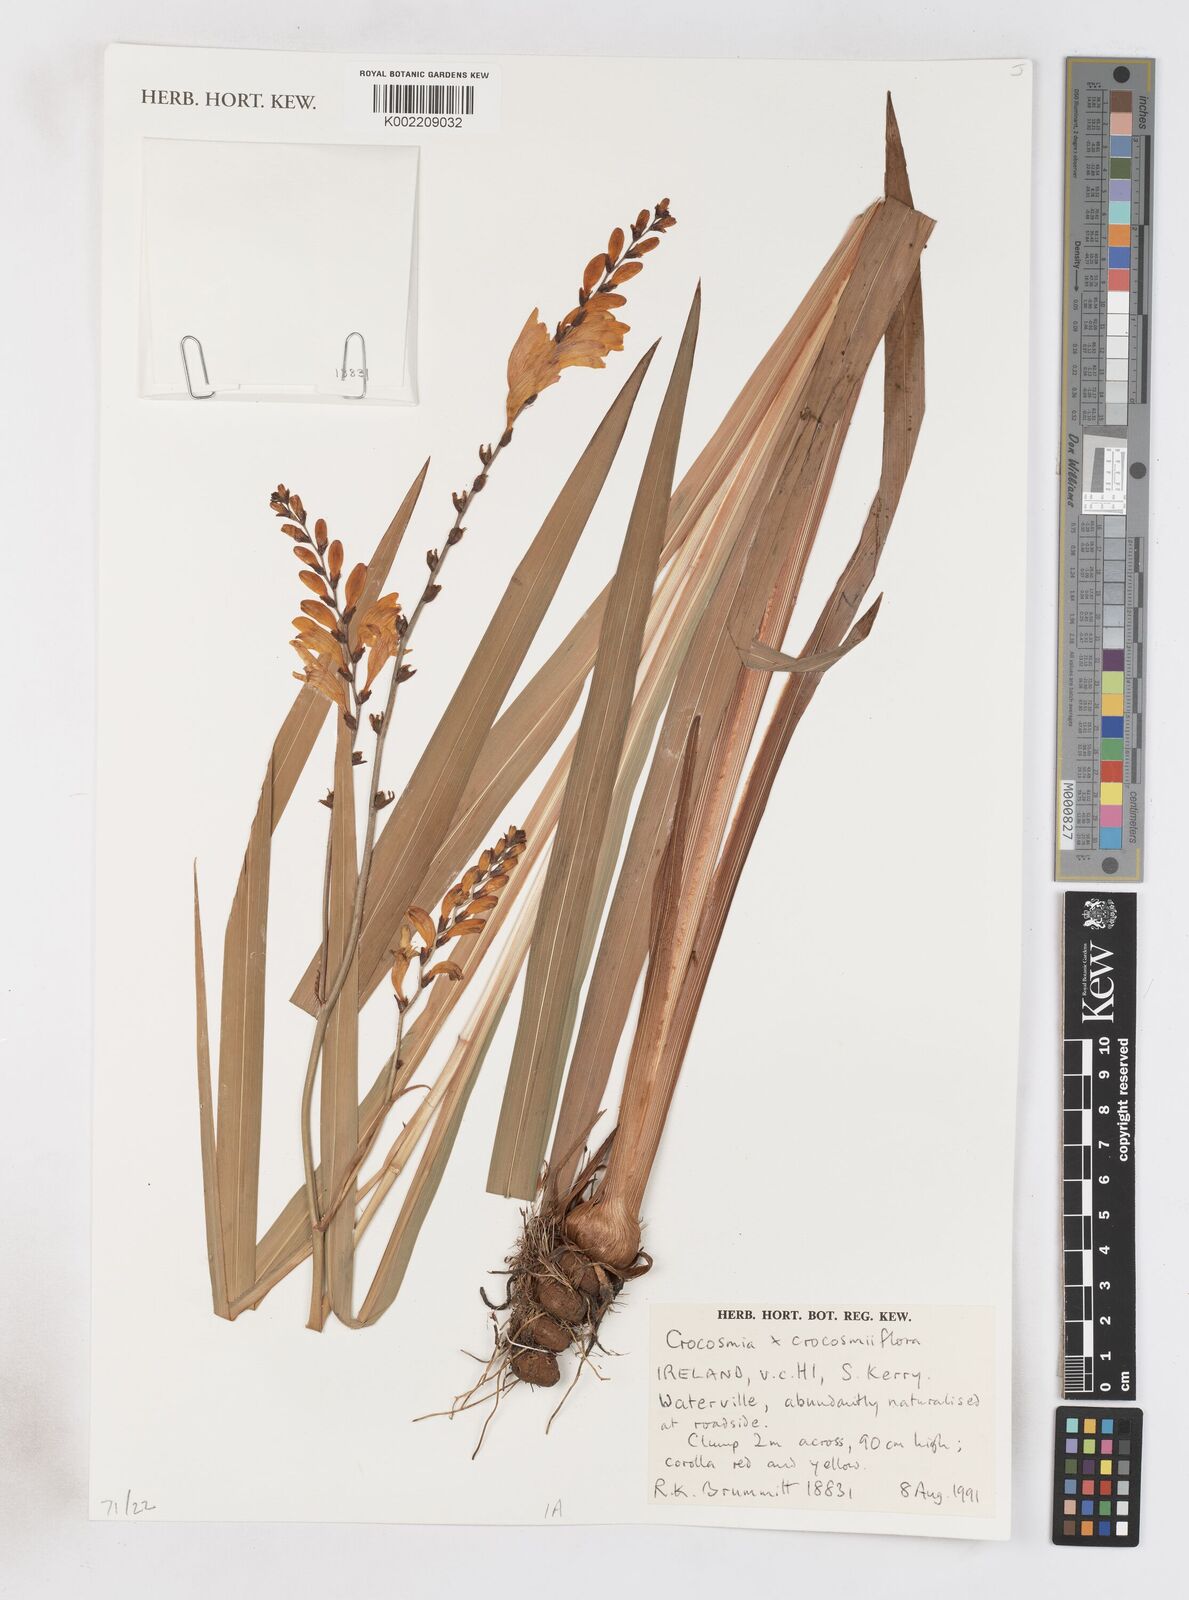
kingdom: Plantae
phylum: Tracheophyta
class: Liliopsida
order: Asparagales
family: Iridaceae
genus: Crocosmia
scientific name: Crocosmia crocosmiiflora
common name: Montbretia
